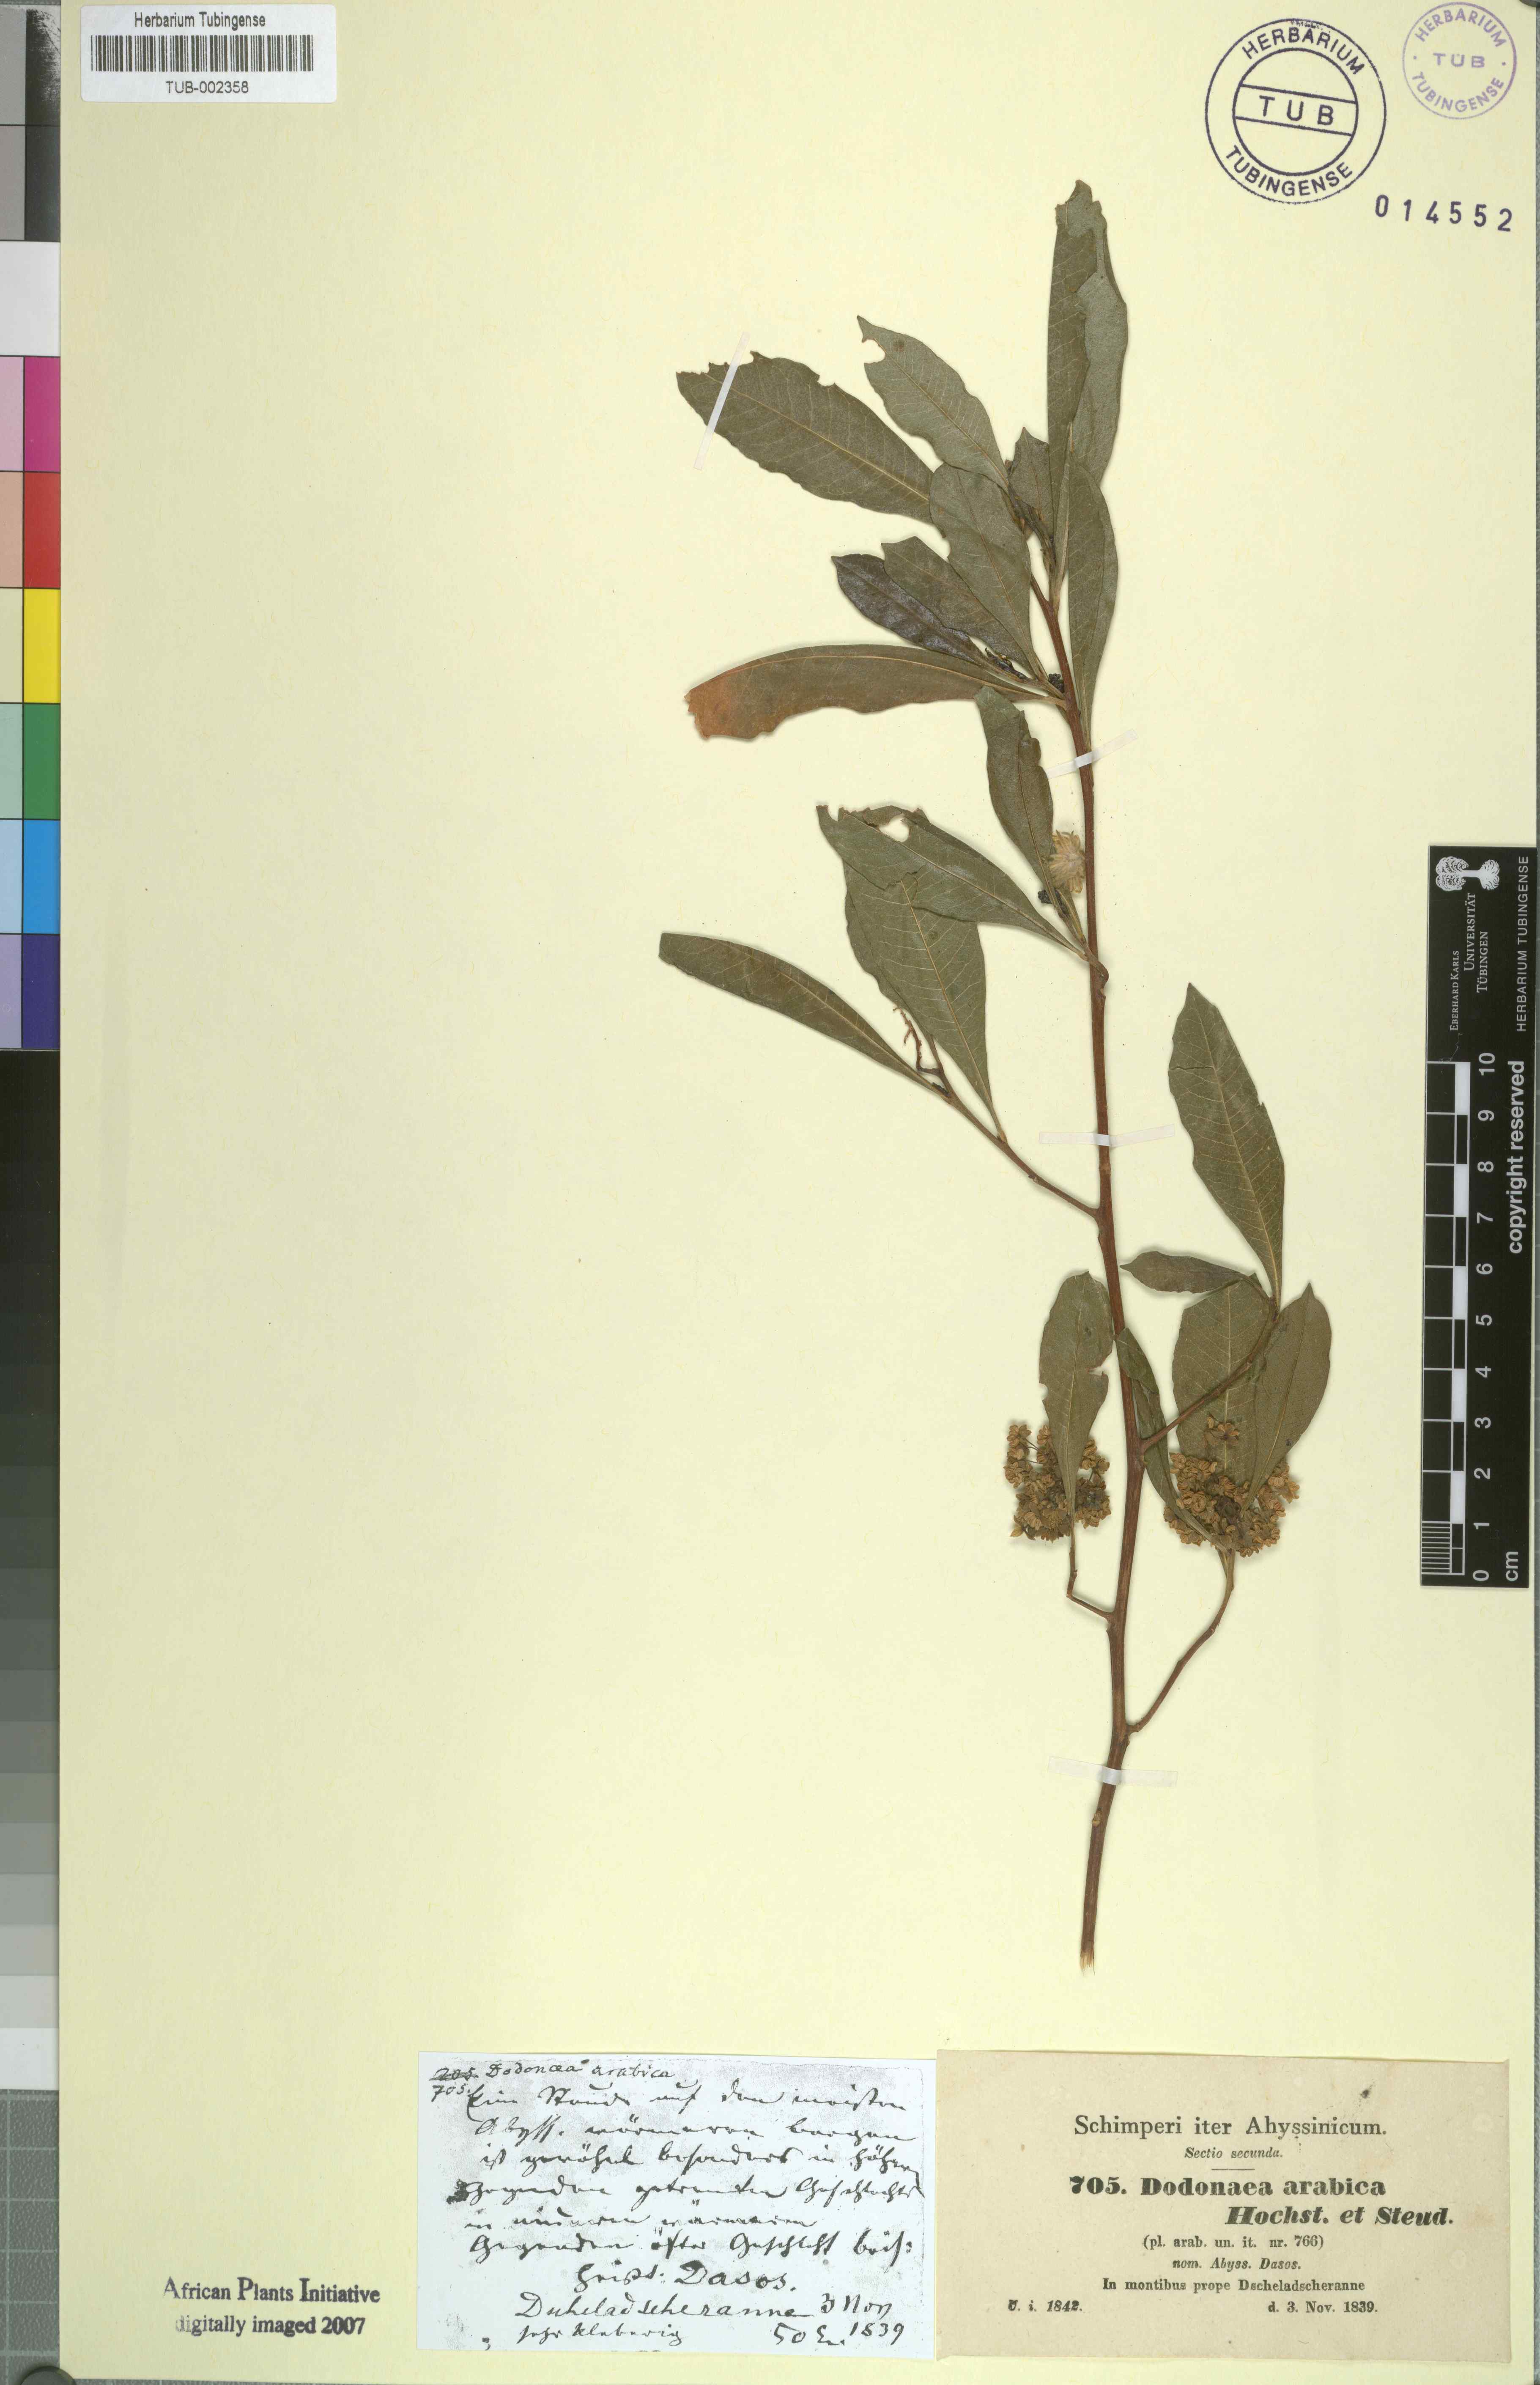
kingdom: Plantae
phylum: Tracheophyta
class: Magnoliopsida
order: Sapindales
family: Sapindaceae
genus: Dodonaea
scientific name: Dodonaea viscosa
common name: Hopbush
